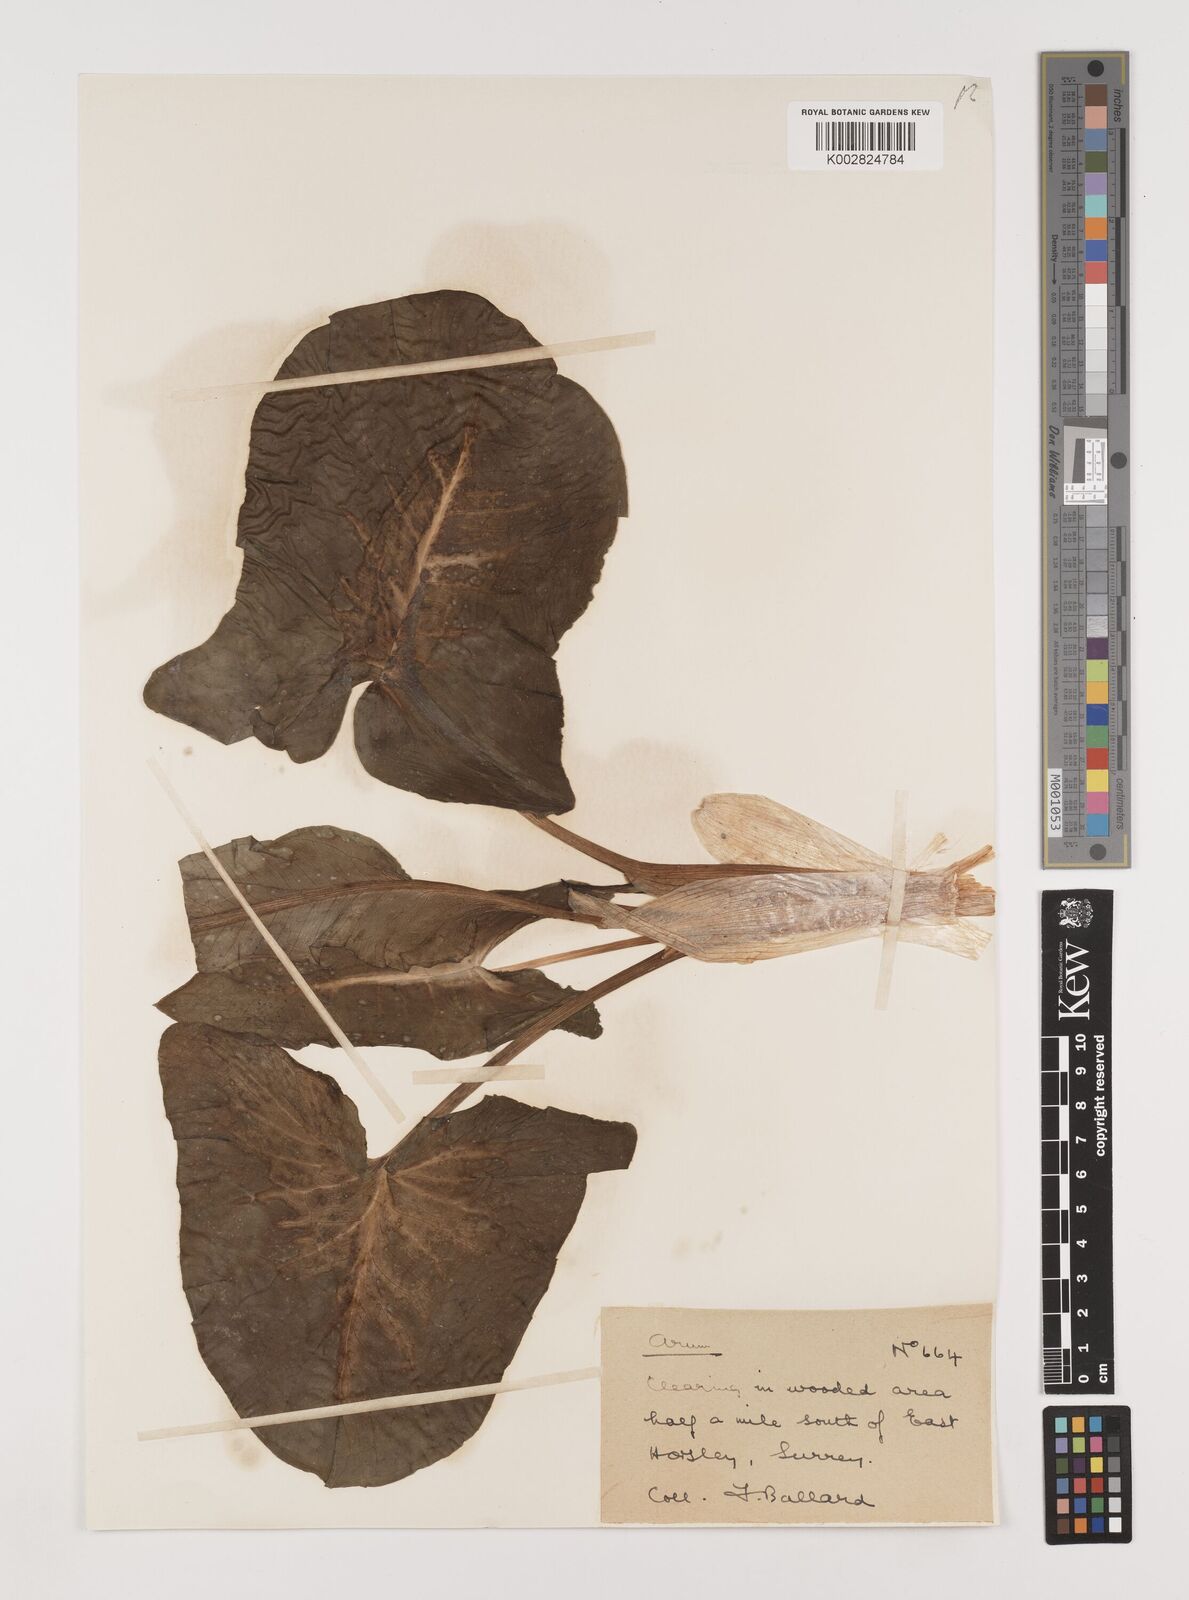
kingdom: Plantae
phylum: Tracheophyta
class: Liliopsida
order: Alismatales
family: Araceae
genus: Arum
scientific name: Arum maculatum
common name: Lords-and-ladies
